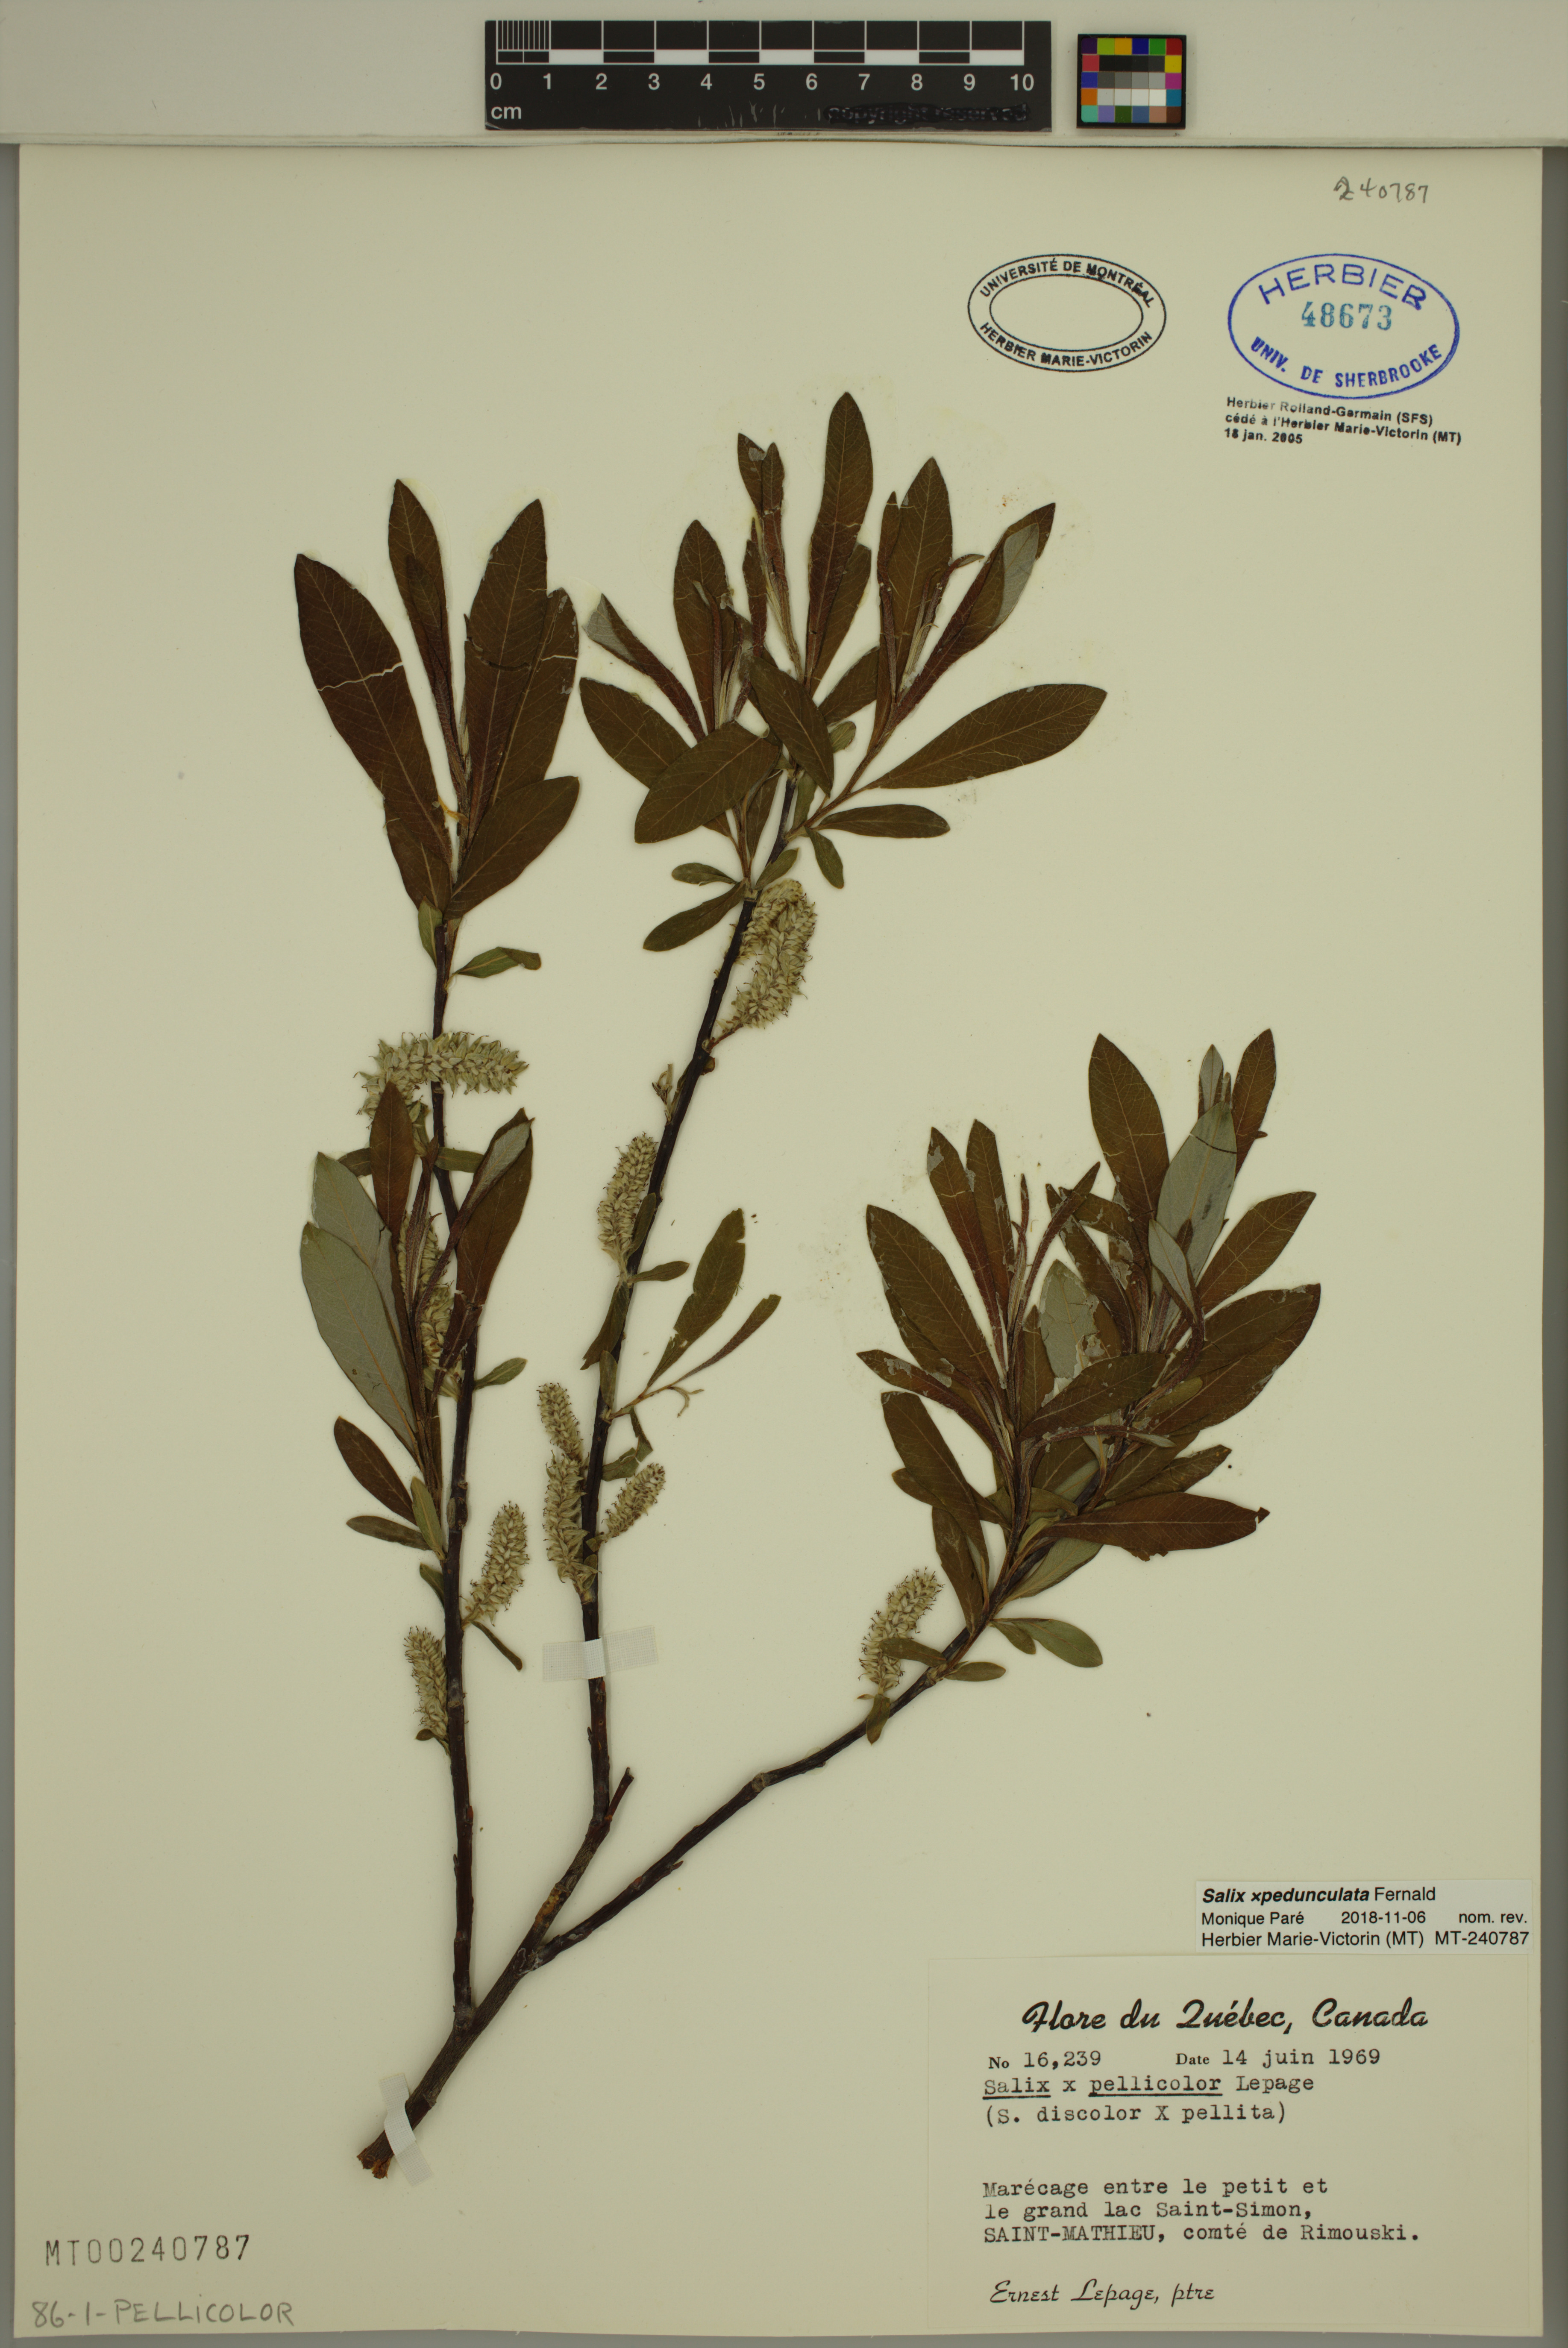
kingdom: Plantae
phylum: Tracheophyta
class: Magnoliopsida
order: Malpighiales
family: Salicaceae
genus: Salix
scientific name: Salix pedunculata
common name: Blackbract willow
